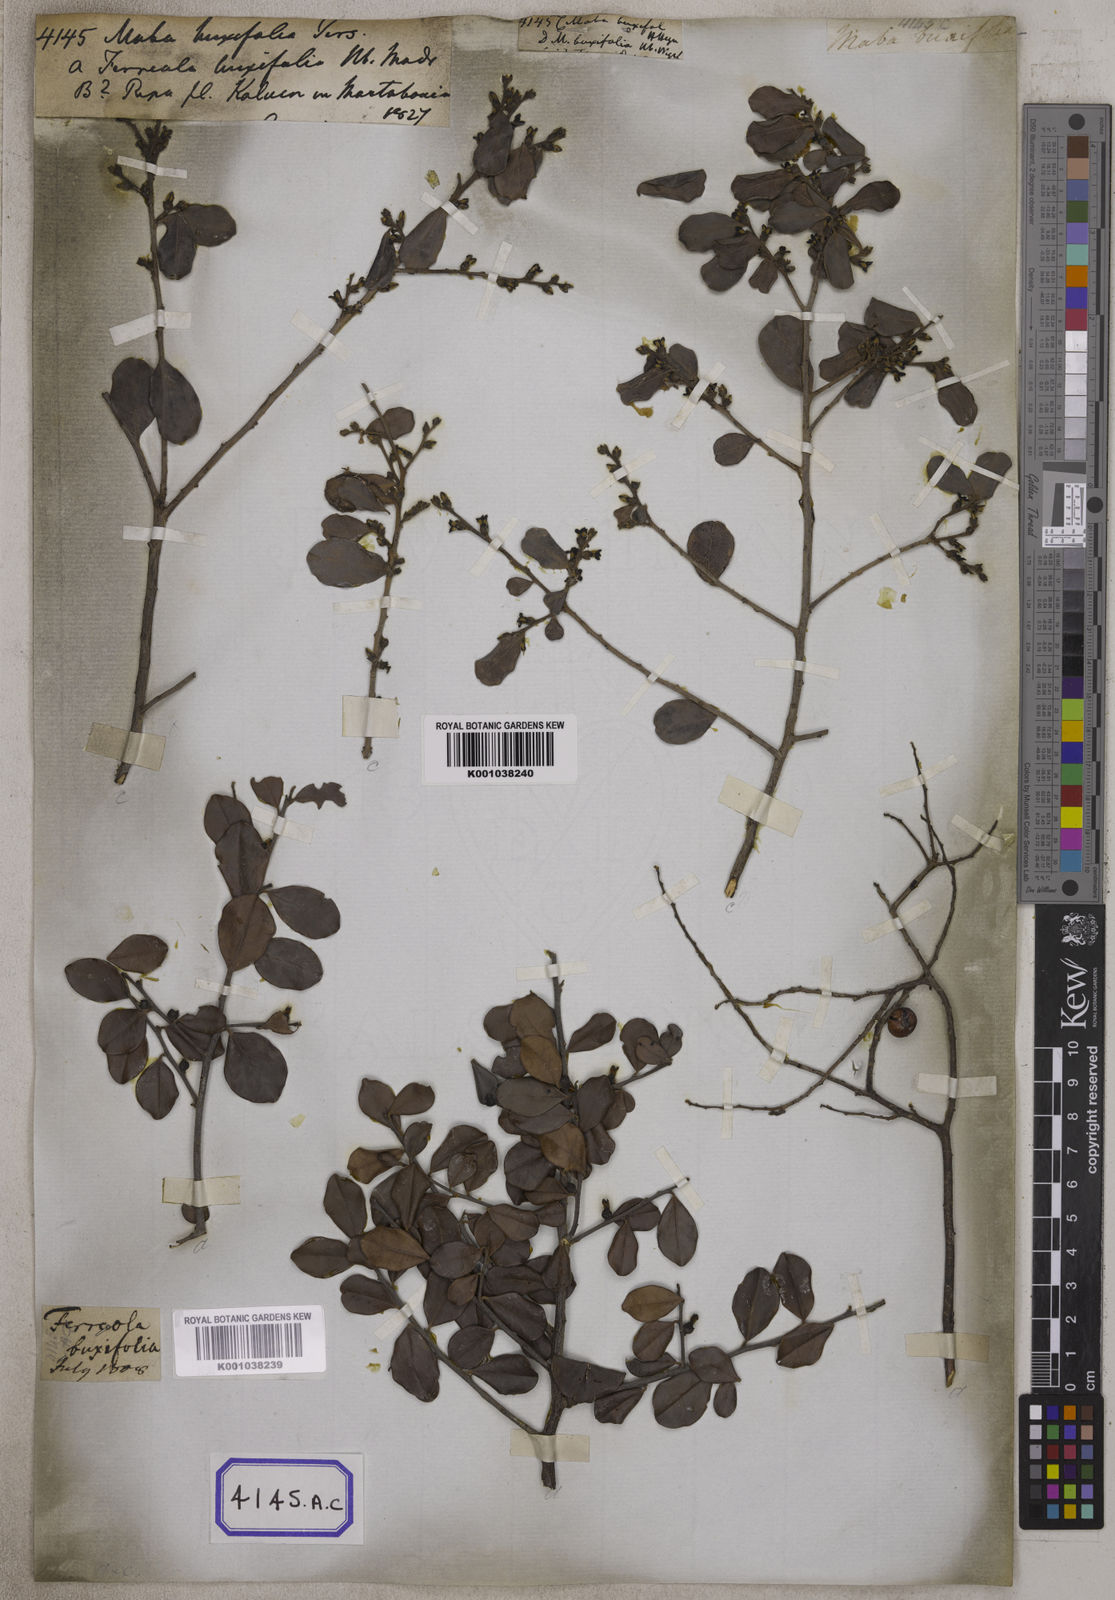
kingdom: Plantae
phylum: Tracheophyta
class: Magnoliopsida
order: Ericales
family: Ebenaceae
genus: Diospyros
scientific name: Diospyros ferrea
